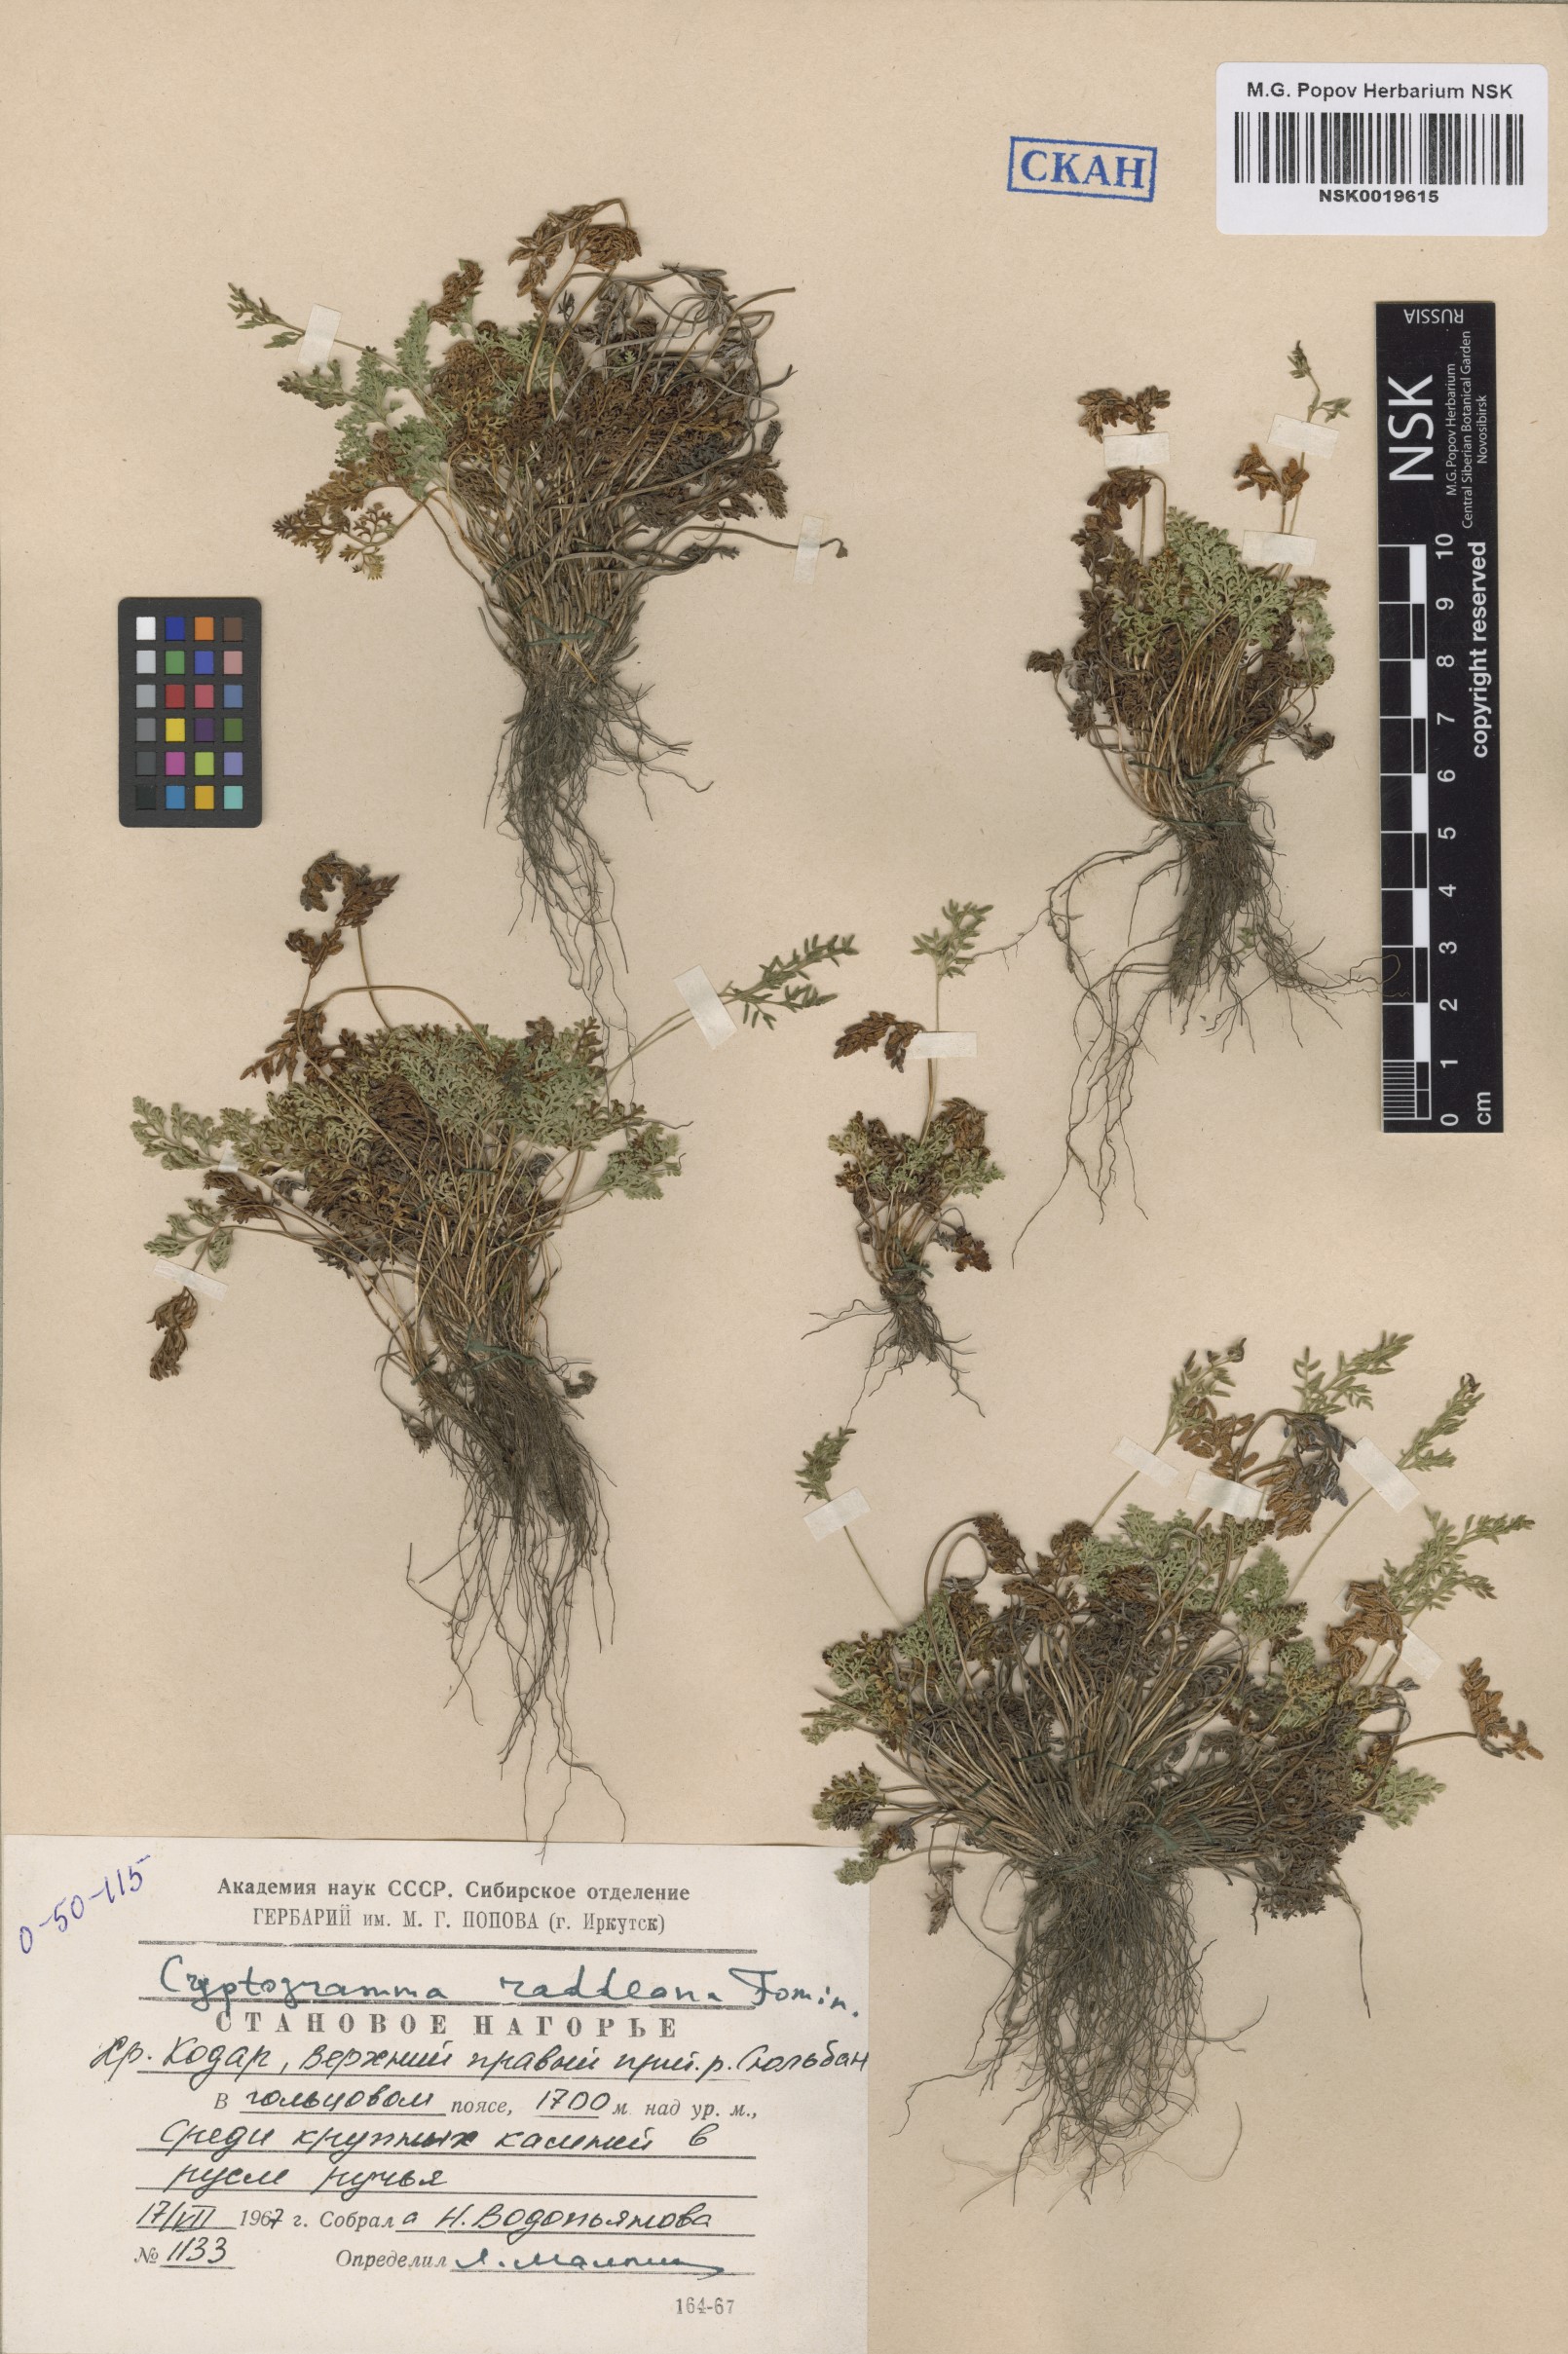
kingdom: Plantae
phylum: Tracheophyta
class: Polypodiopsida
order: Polypodiales
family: Pteridaceae
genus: Cryptogramma
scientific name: Cryptogramma brunoniana
